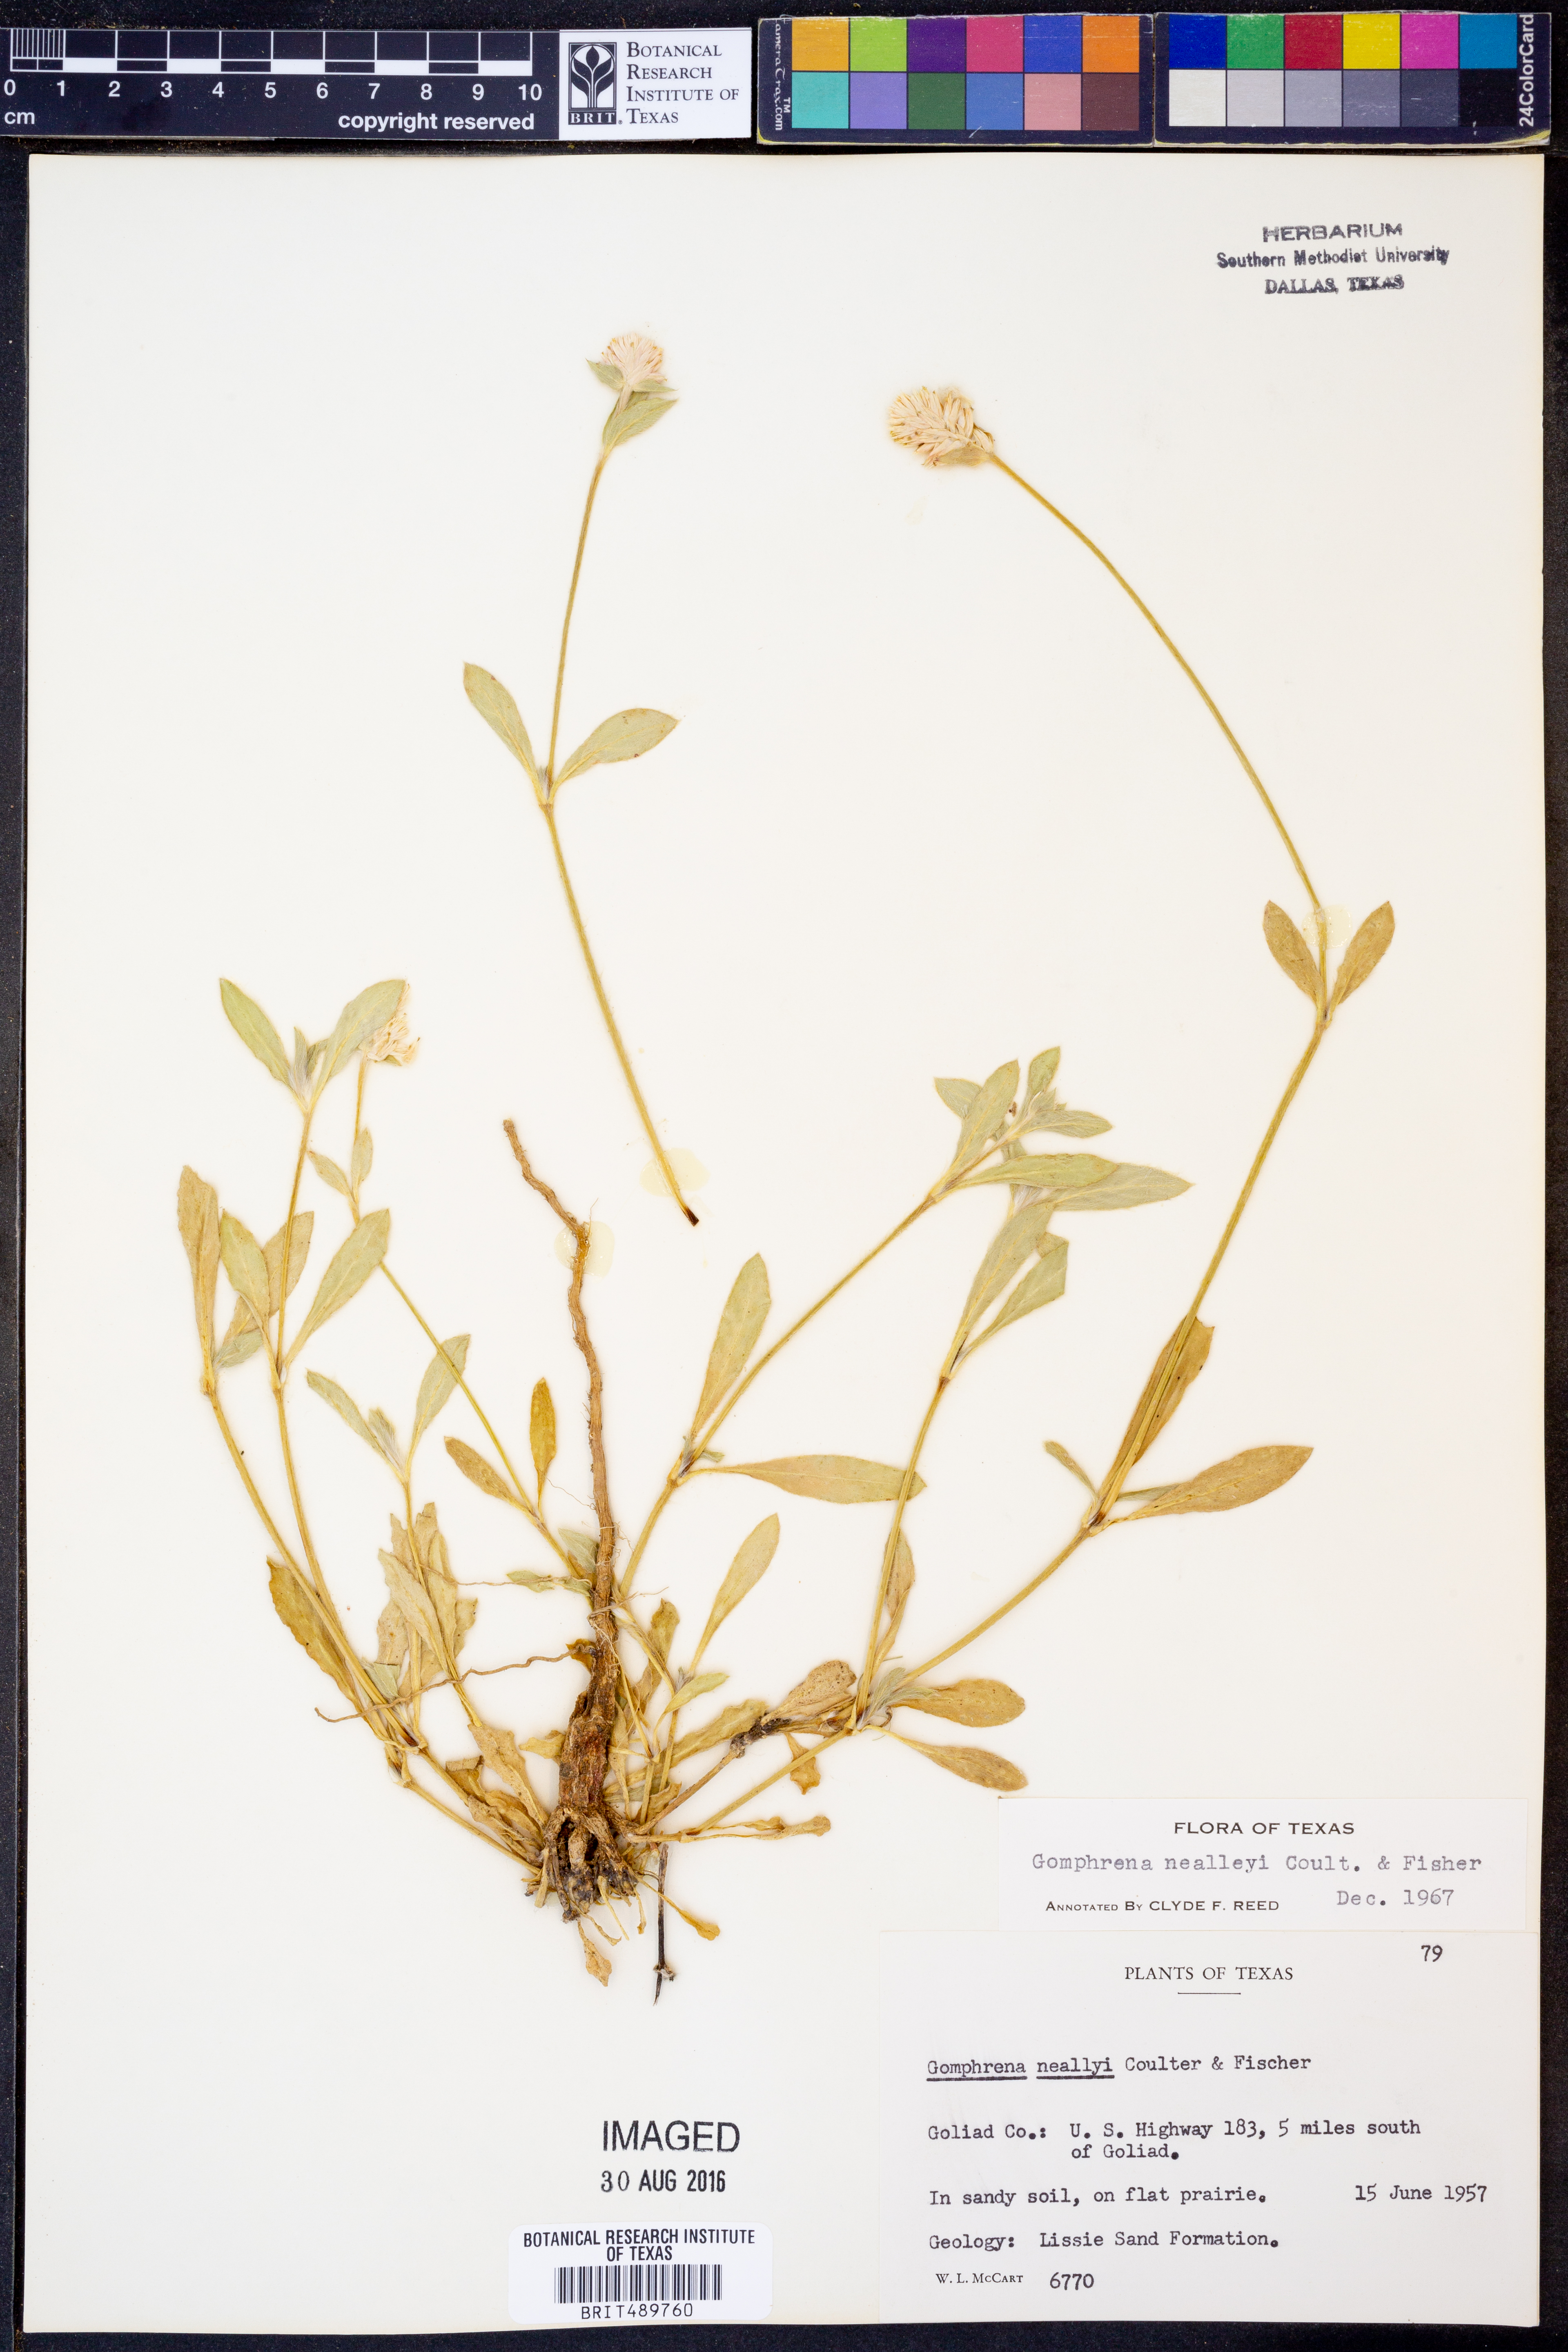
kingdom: Plantae
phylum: Tracheophyta
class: Magnoliopsida
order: Caryophyllales
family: Amaranthaceae
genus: Gomphrena
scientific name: Gomphrena nealleyi
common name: Nealley's globe-amaranth
